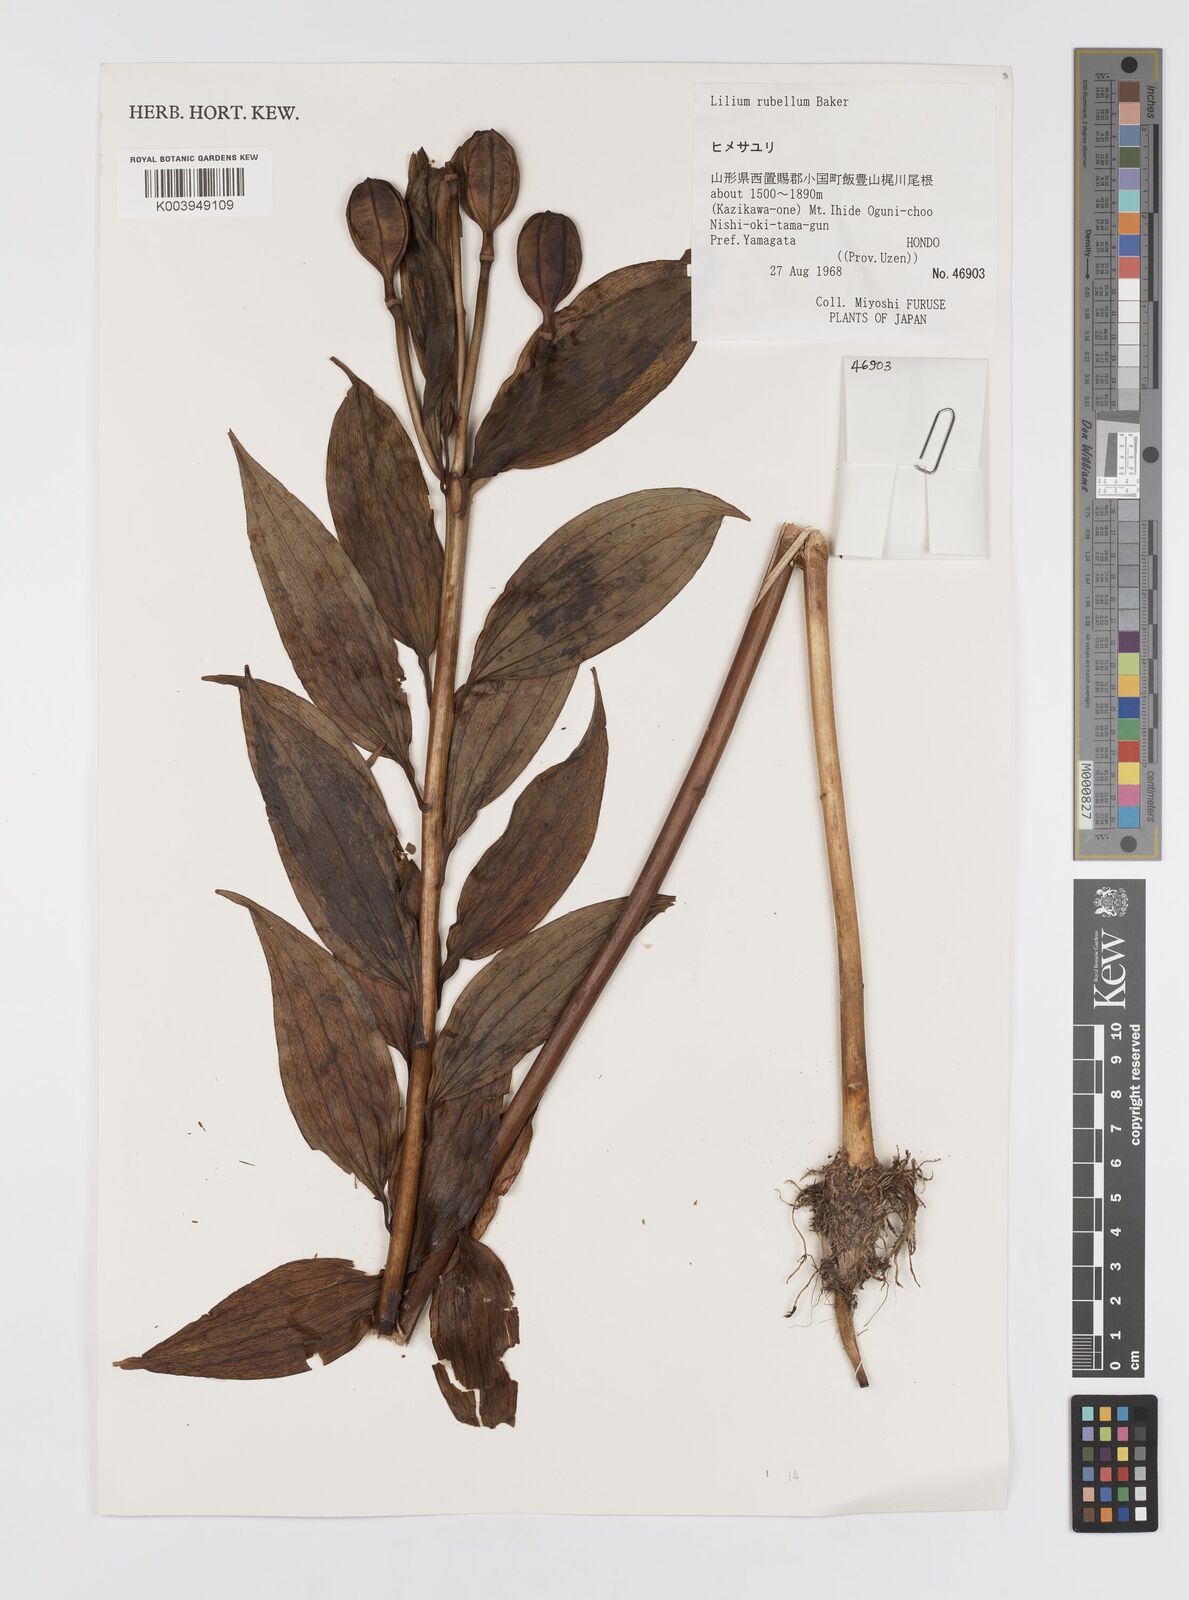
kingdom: Plantae
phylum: Tracheophyta
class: Liliopsida
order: Liliales
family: Liliaceae
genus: Lilium
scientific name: Lilium rubellum
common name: Rubellum lily
